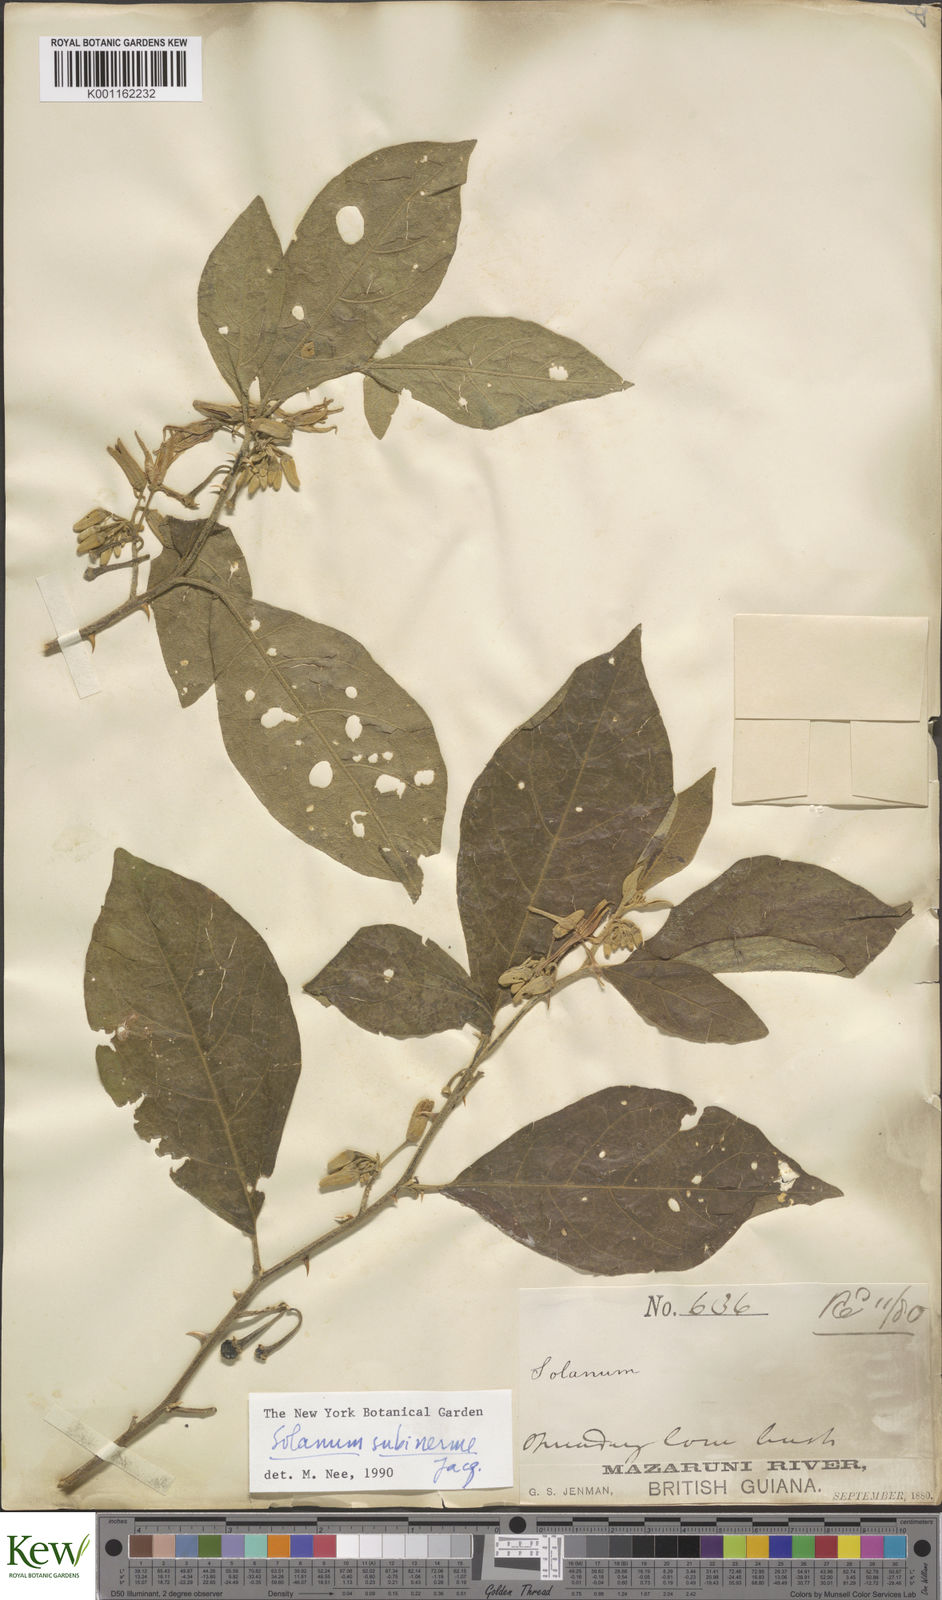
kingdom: Plantae
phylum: Tracheophyta
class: Magnoliopsida
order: Solanales
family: Solanaceae
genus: Solanum
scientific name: Solanum subinerme
